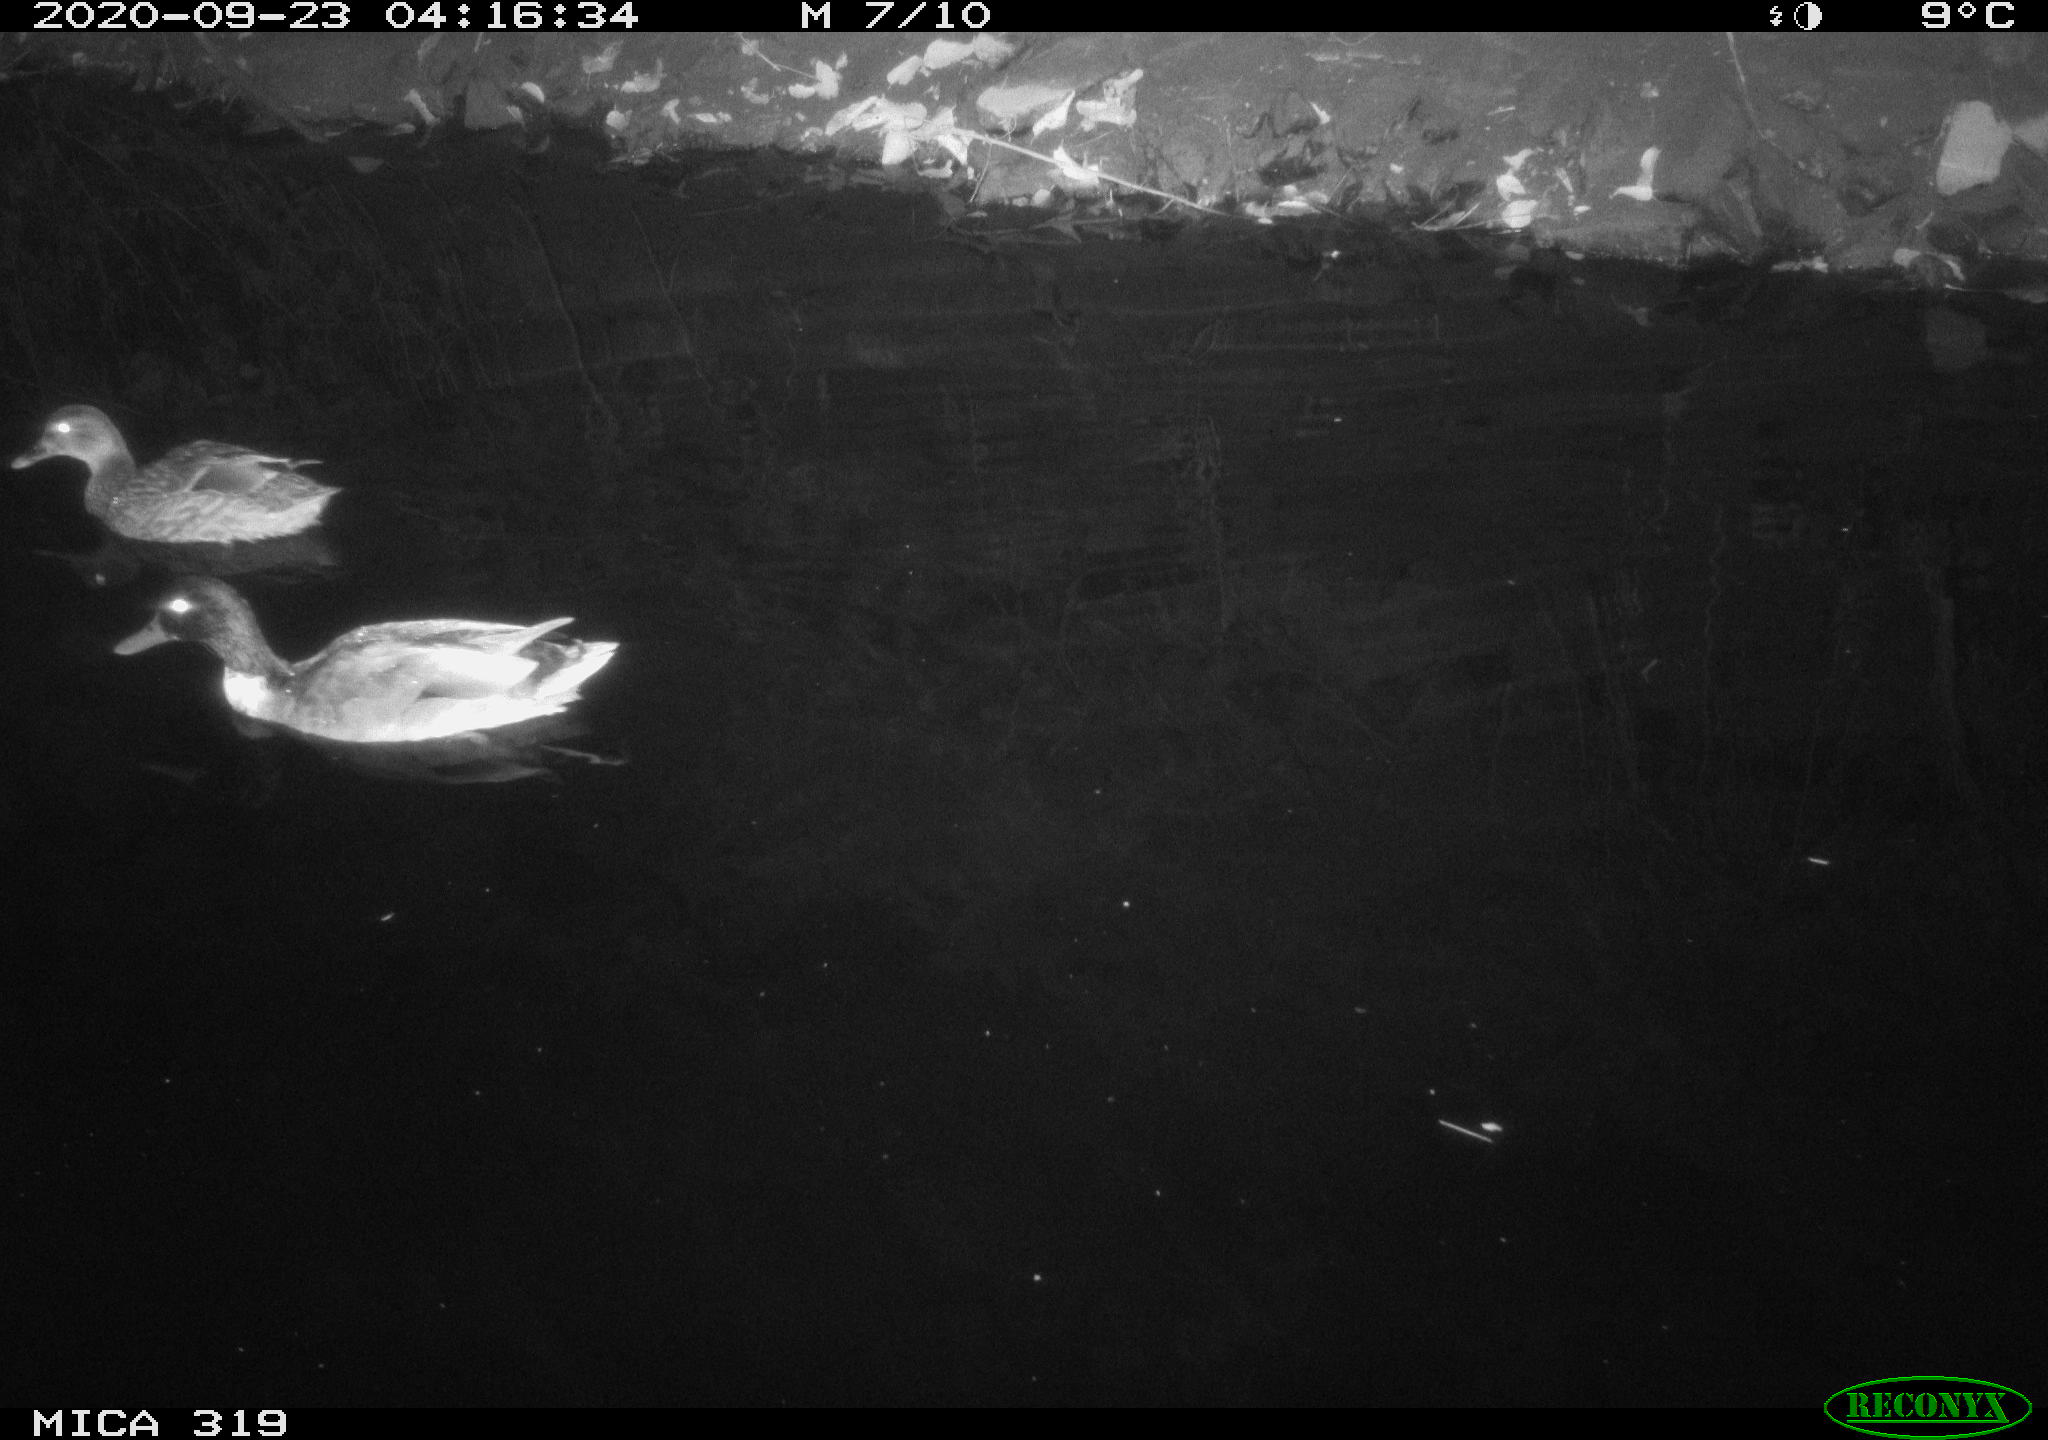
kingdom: Animalia
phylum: Chordata
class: Aves
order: Anseriformes
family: Anatidae
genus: Anas
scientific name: Anas platyrhynchos
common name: Mallard
